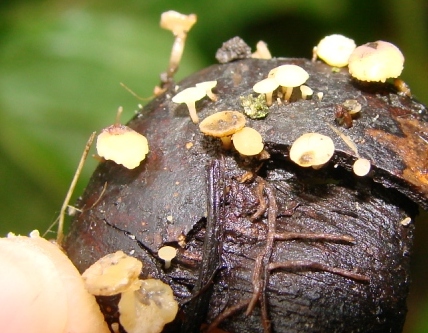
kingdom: Fungi
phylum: Ascomycota
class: Leotiomycetes
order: Helotiales
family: Helotiaceae
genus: Hymenoscyphus
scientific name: Hymenoscyphus fructigenus
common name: frugt-stilkskive
